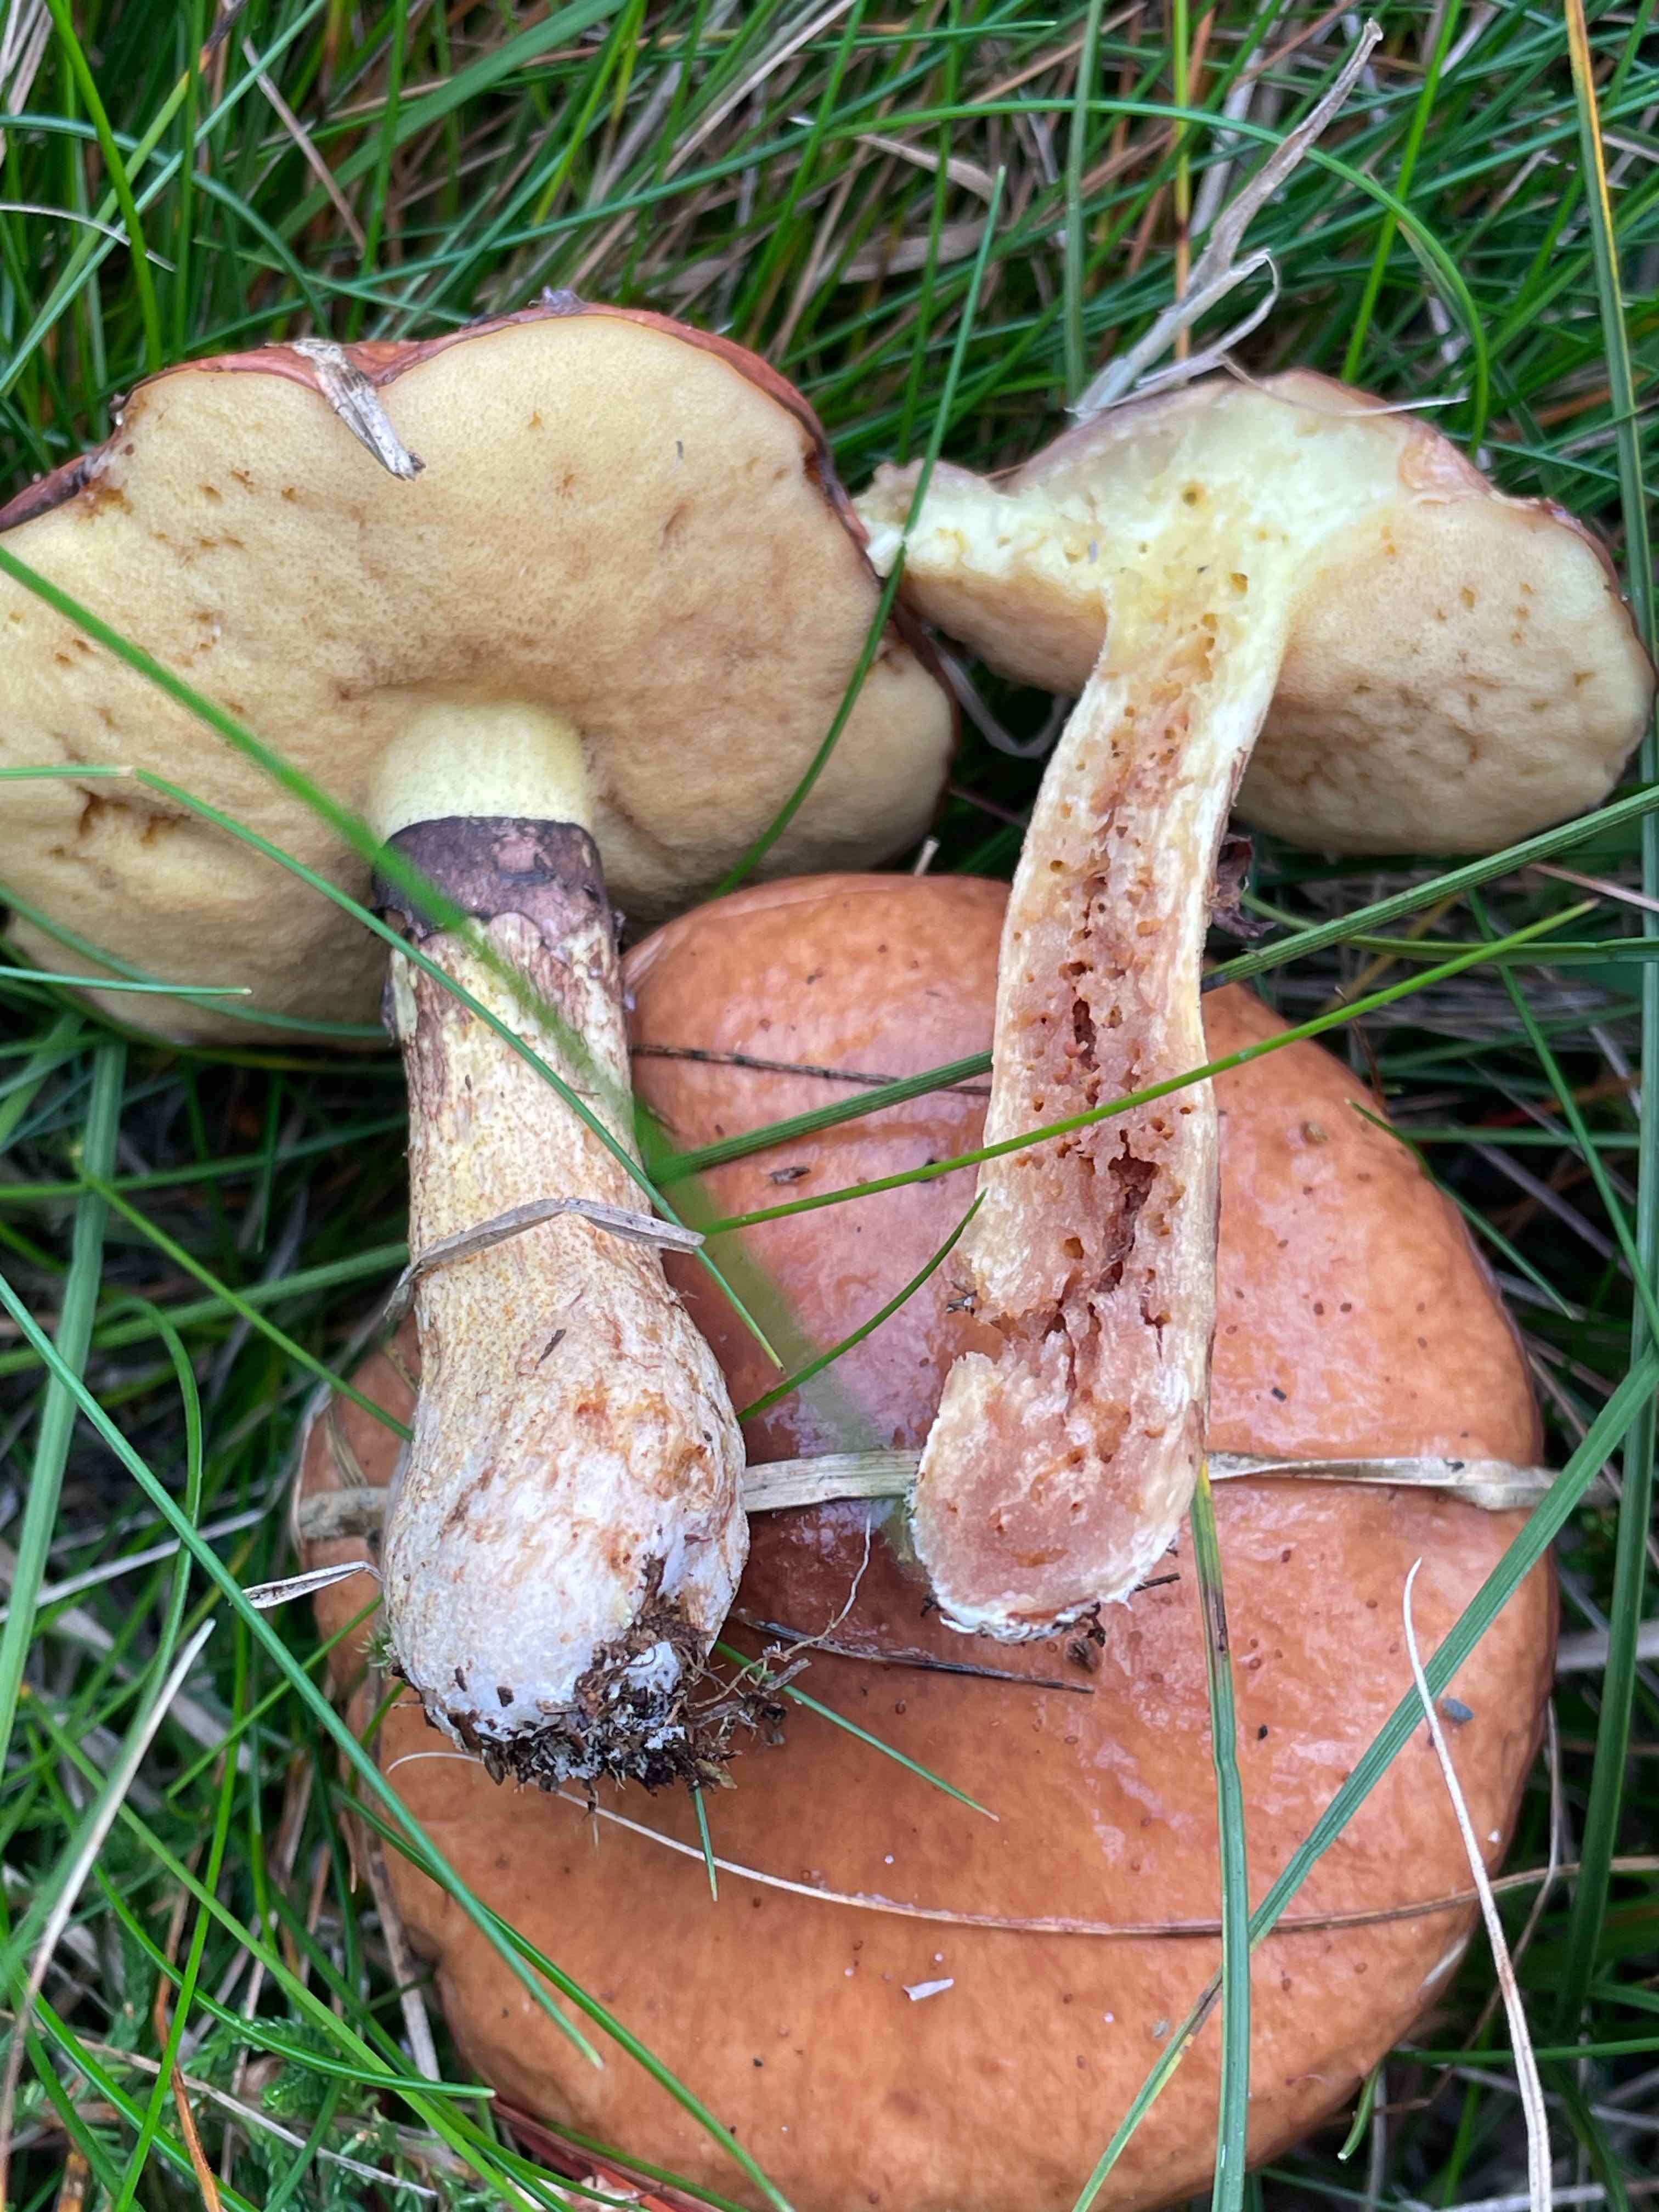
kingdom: Fungi
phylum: Basidiomycota
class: Agaricomycetes
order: Boletales
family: Suillaceae
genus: Suillus
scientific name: Suillus luteus
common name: brungul slimrørhat
